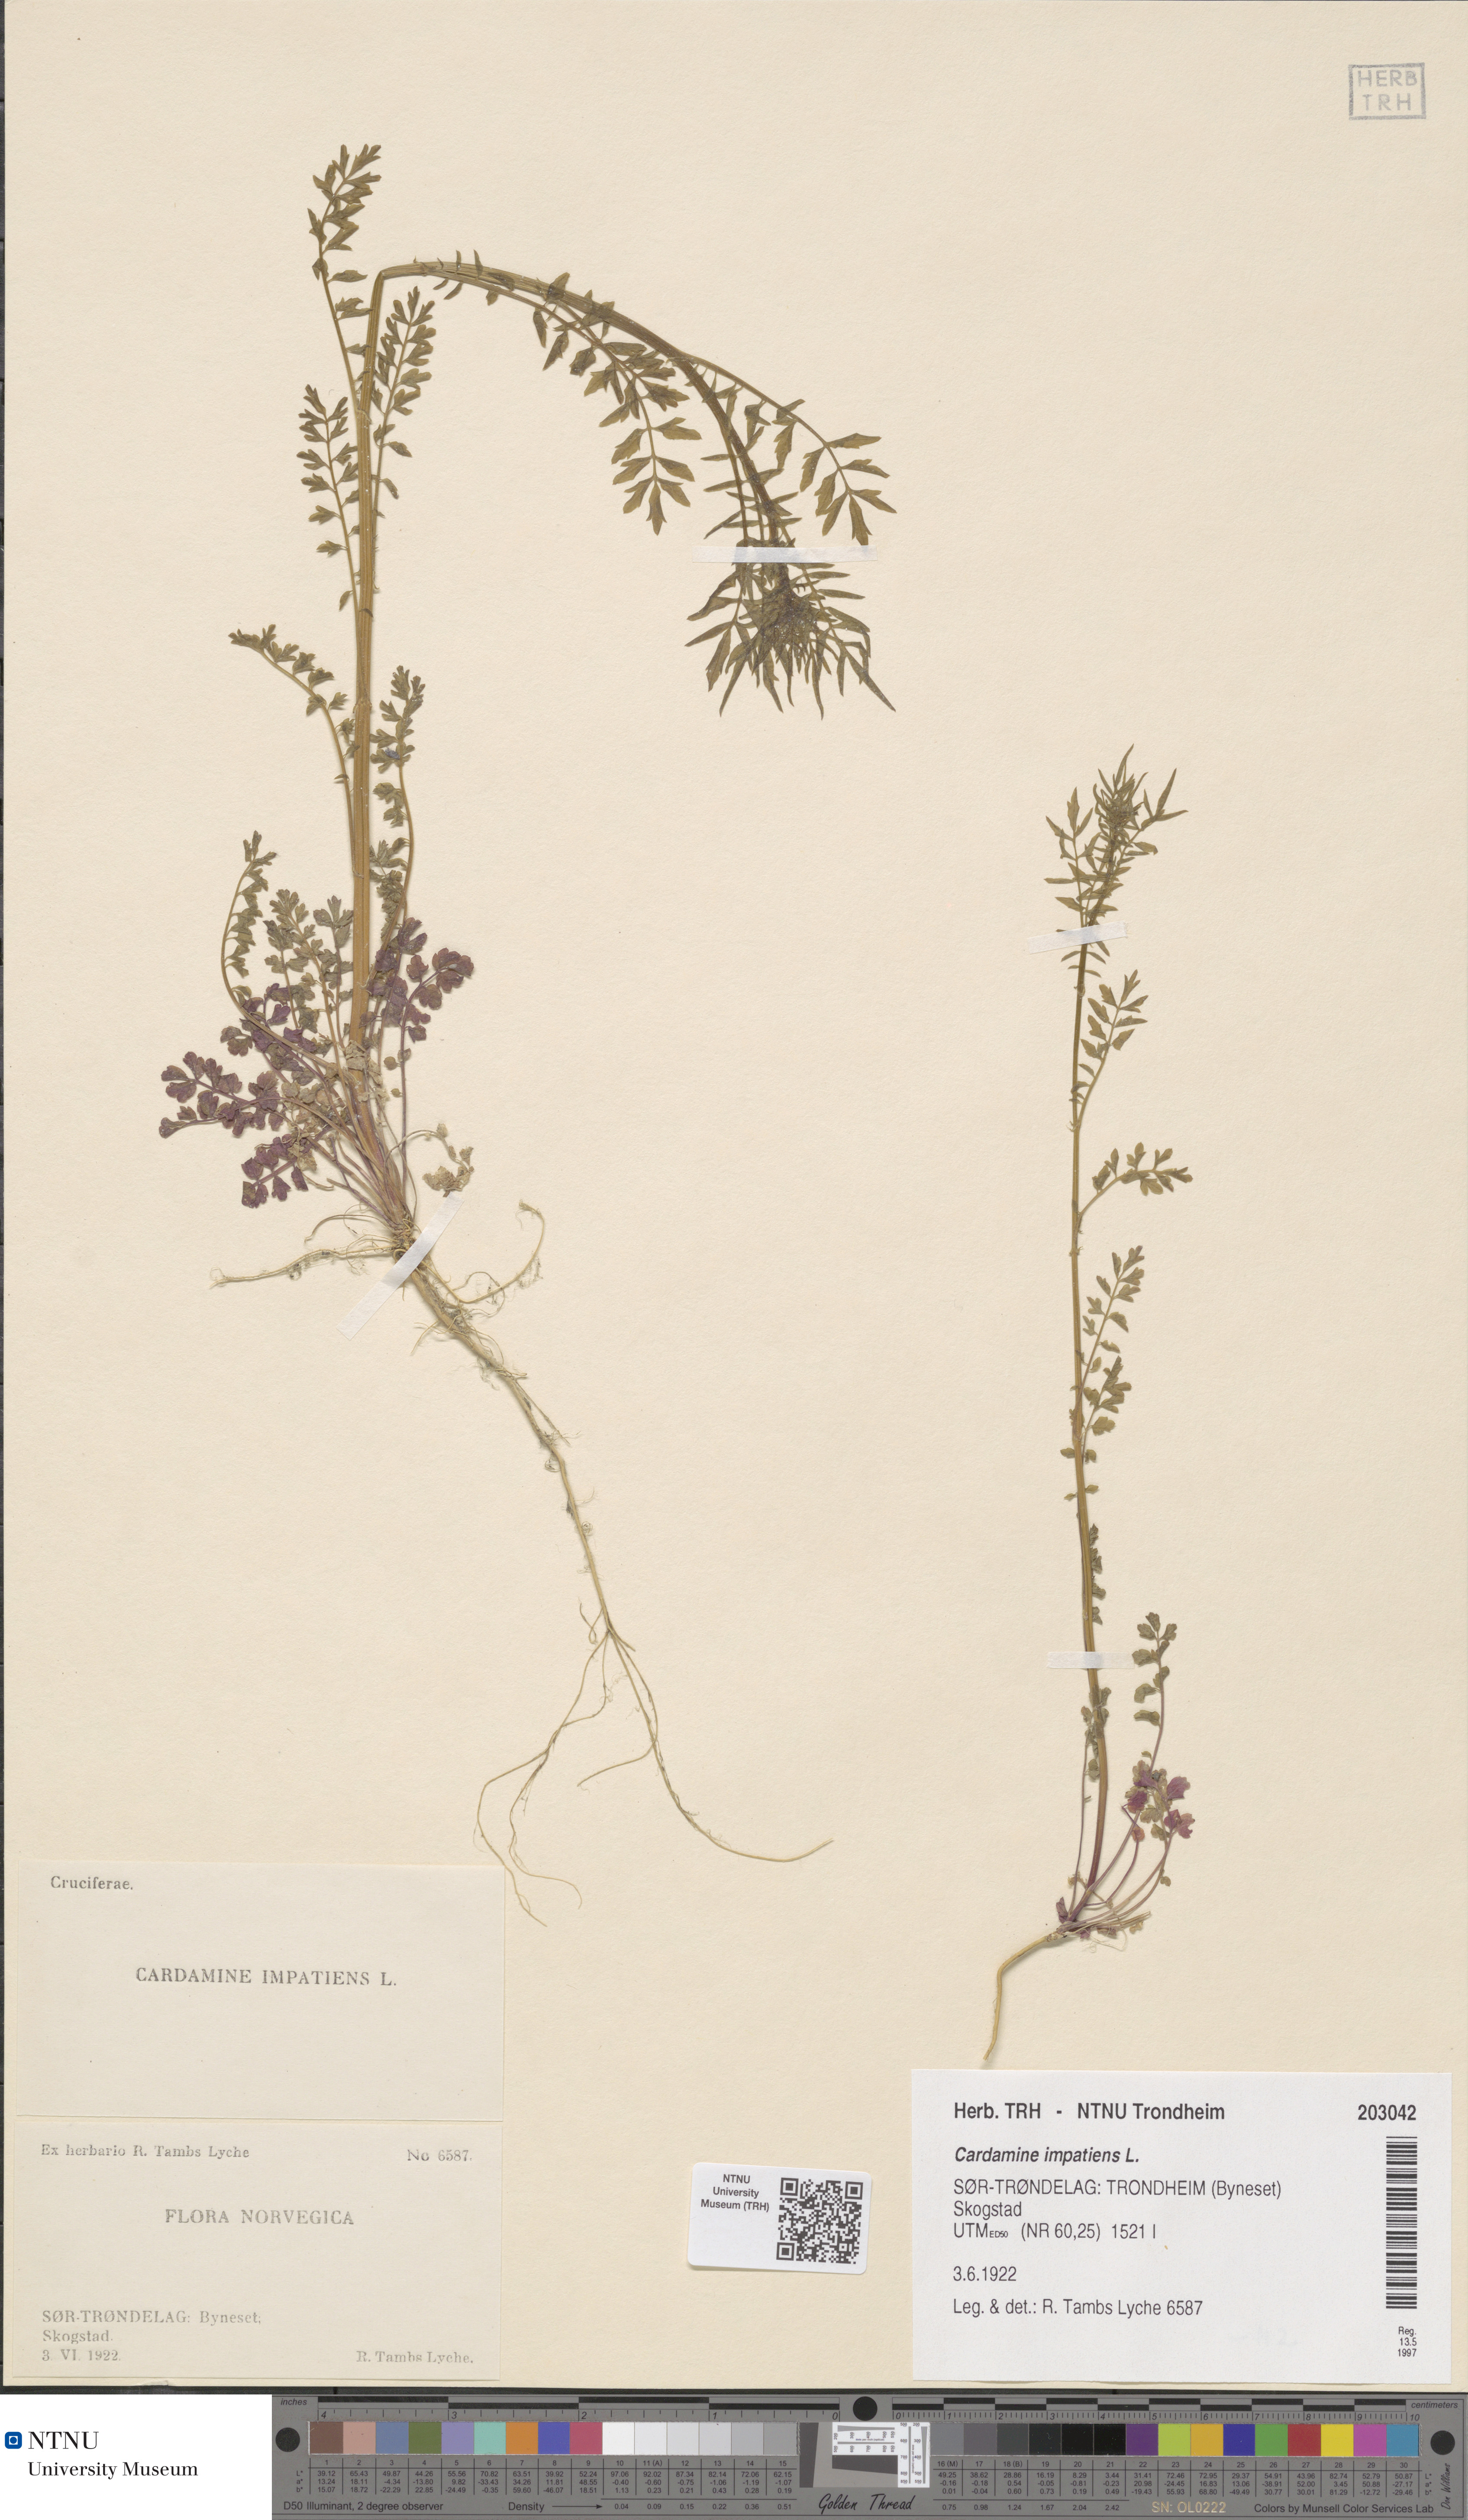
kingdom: Plantae
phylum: Tracheophyta
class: Magnoliopsida
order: Brassicales
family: Brassicaceae
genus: Cardamine
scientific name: Cardamine impatiens
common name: Narrow-leaved bitter-cress
